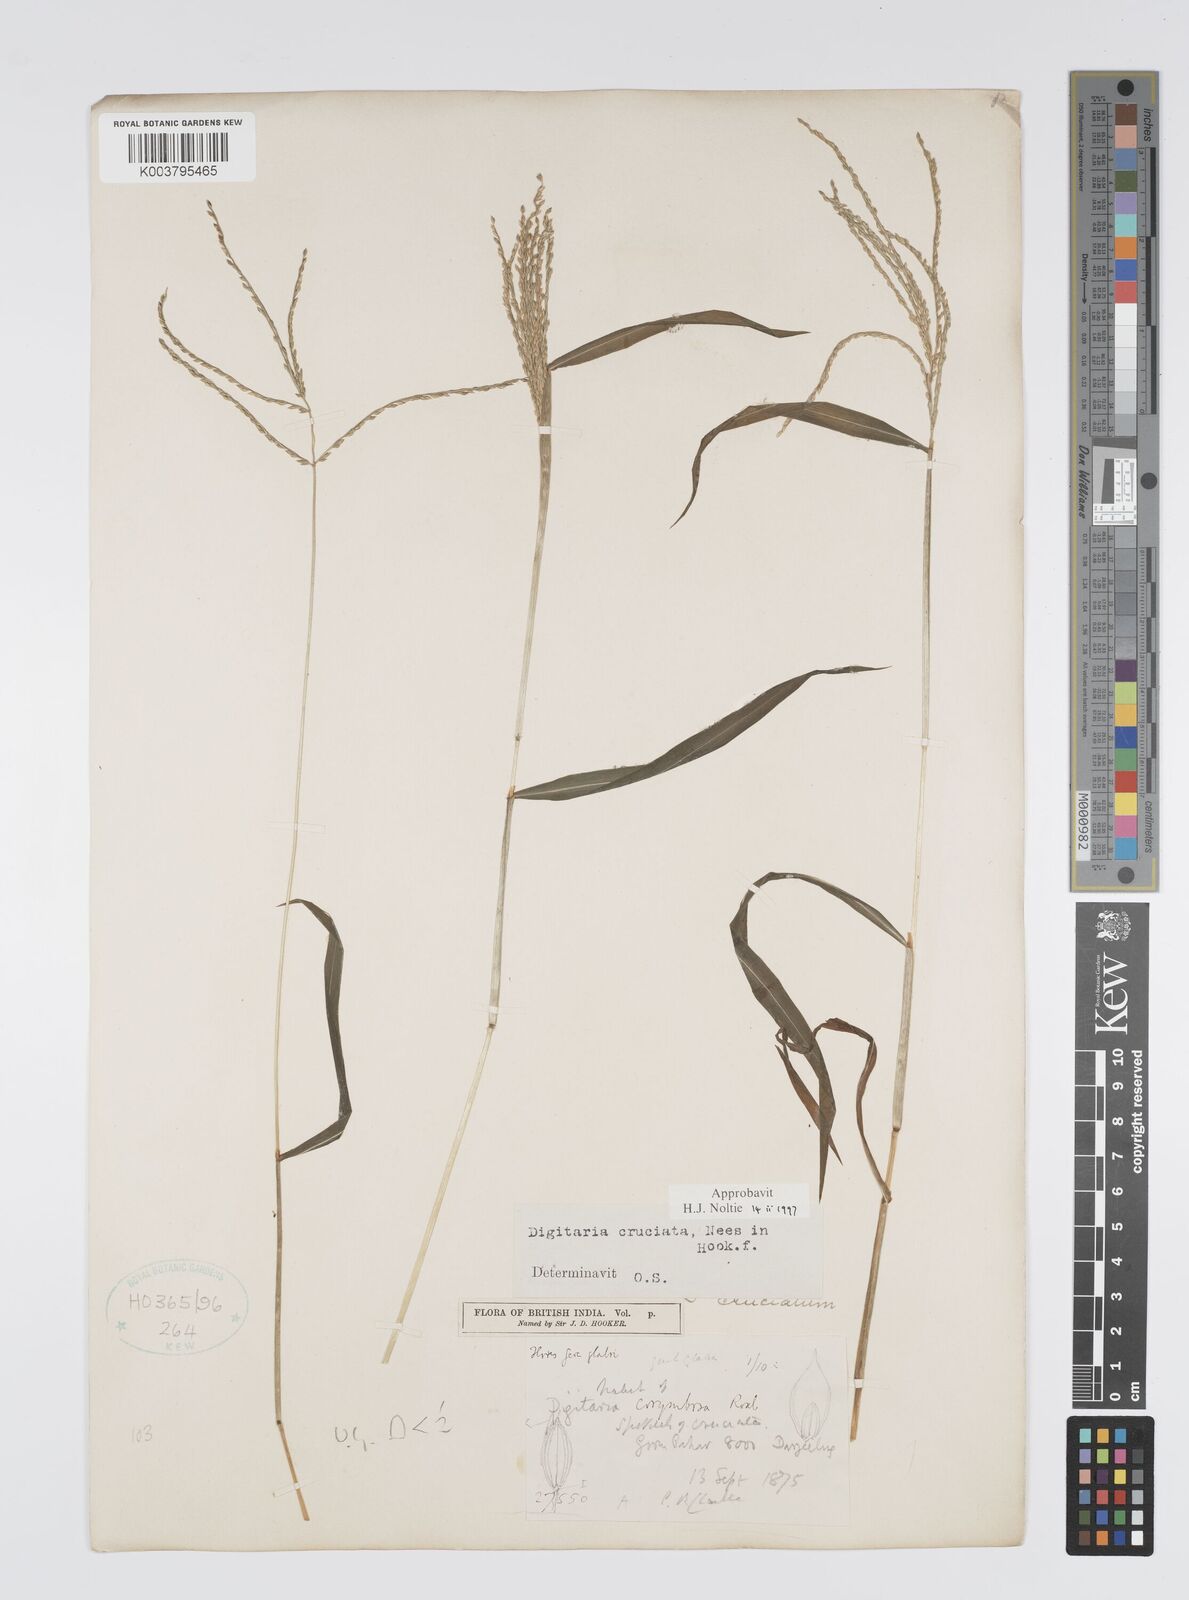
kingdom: Plantae
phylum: Tracheophyta
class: Liliopsida
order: Poales
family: Poaceae
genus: Digitaria
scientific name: Digitaria cruciata
